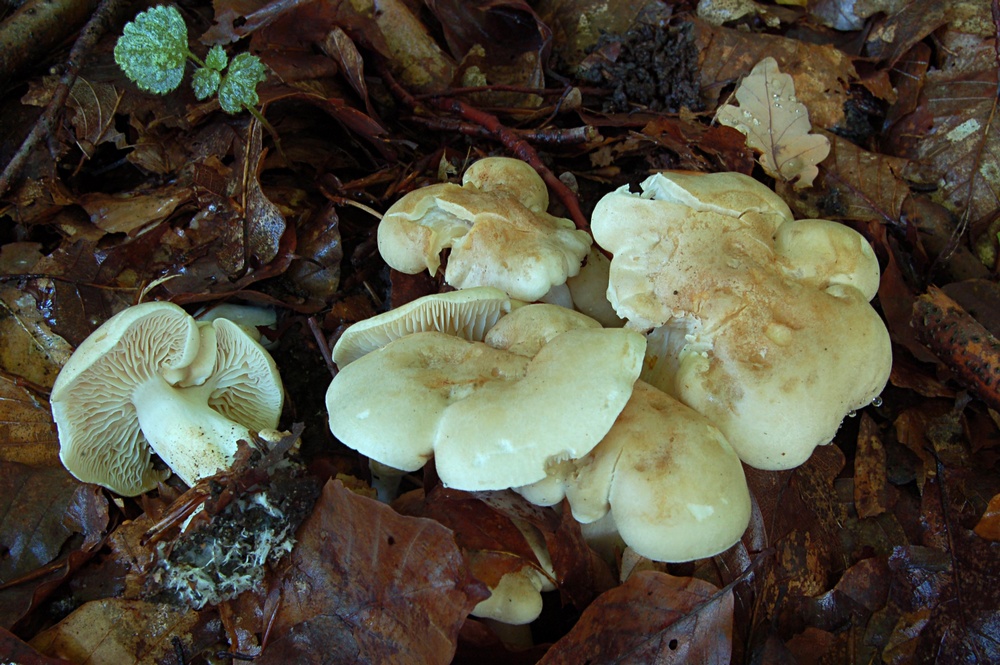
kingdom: Fungi
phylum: Basidiomycota
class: Agaricomycetes
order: Agaricales
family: Tricholomataceae
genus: Tricholoma
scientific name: Tricholoma lascivum
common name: stinkende ridderhat
